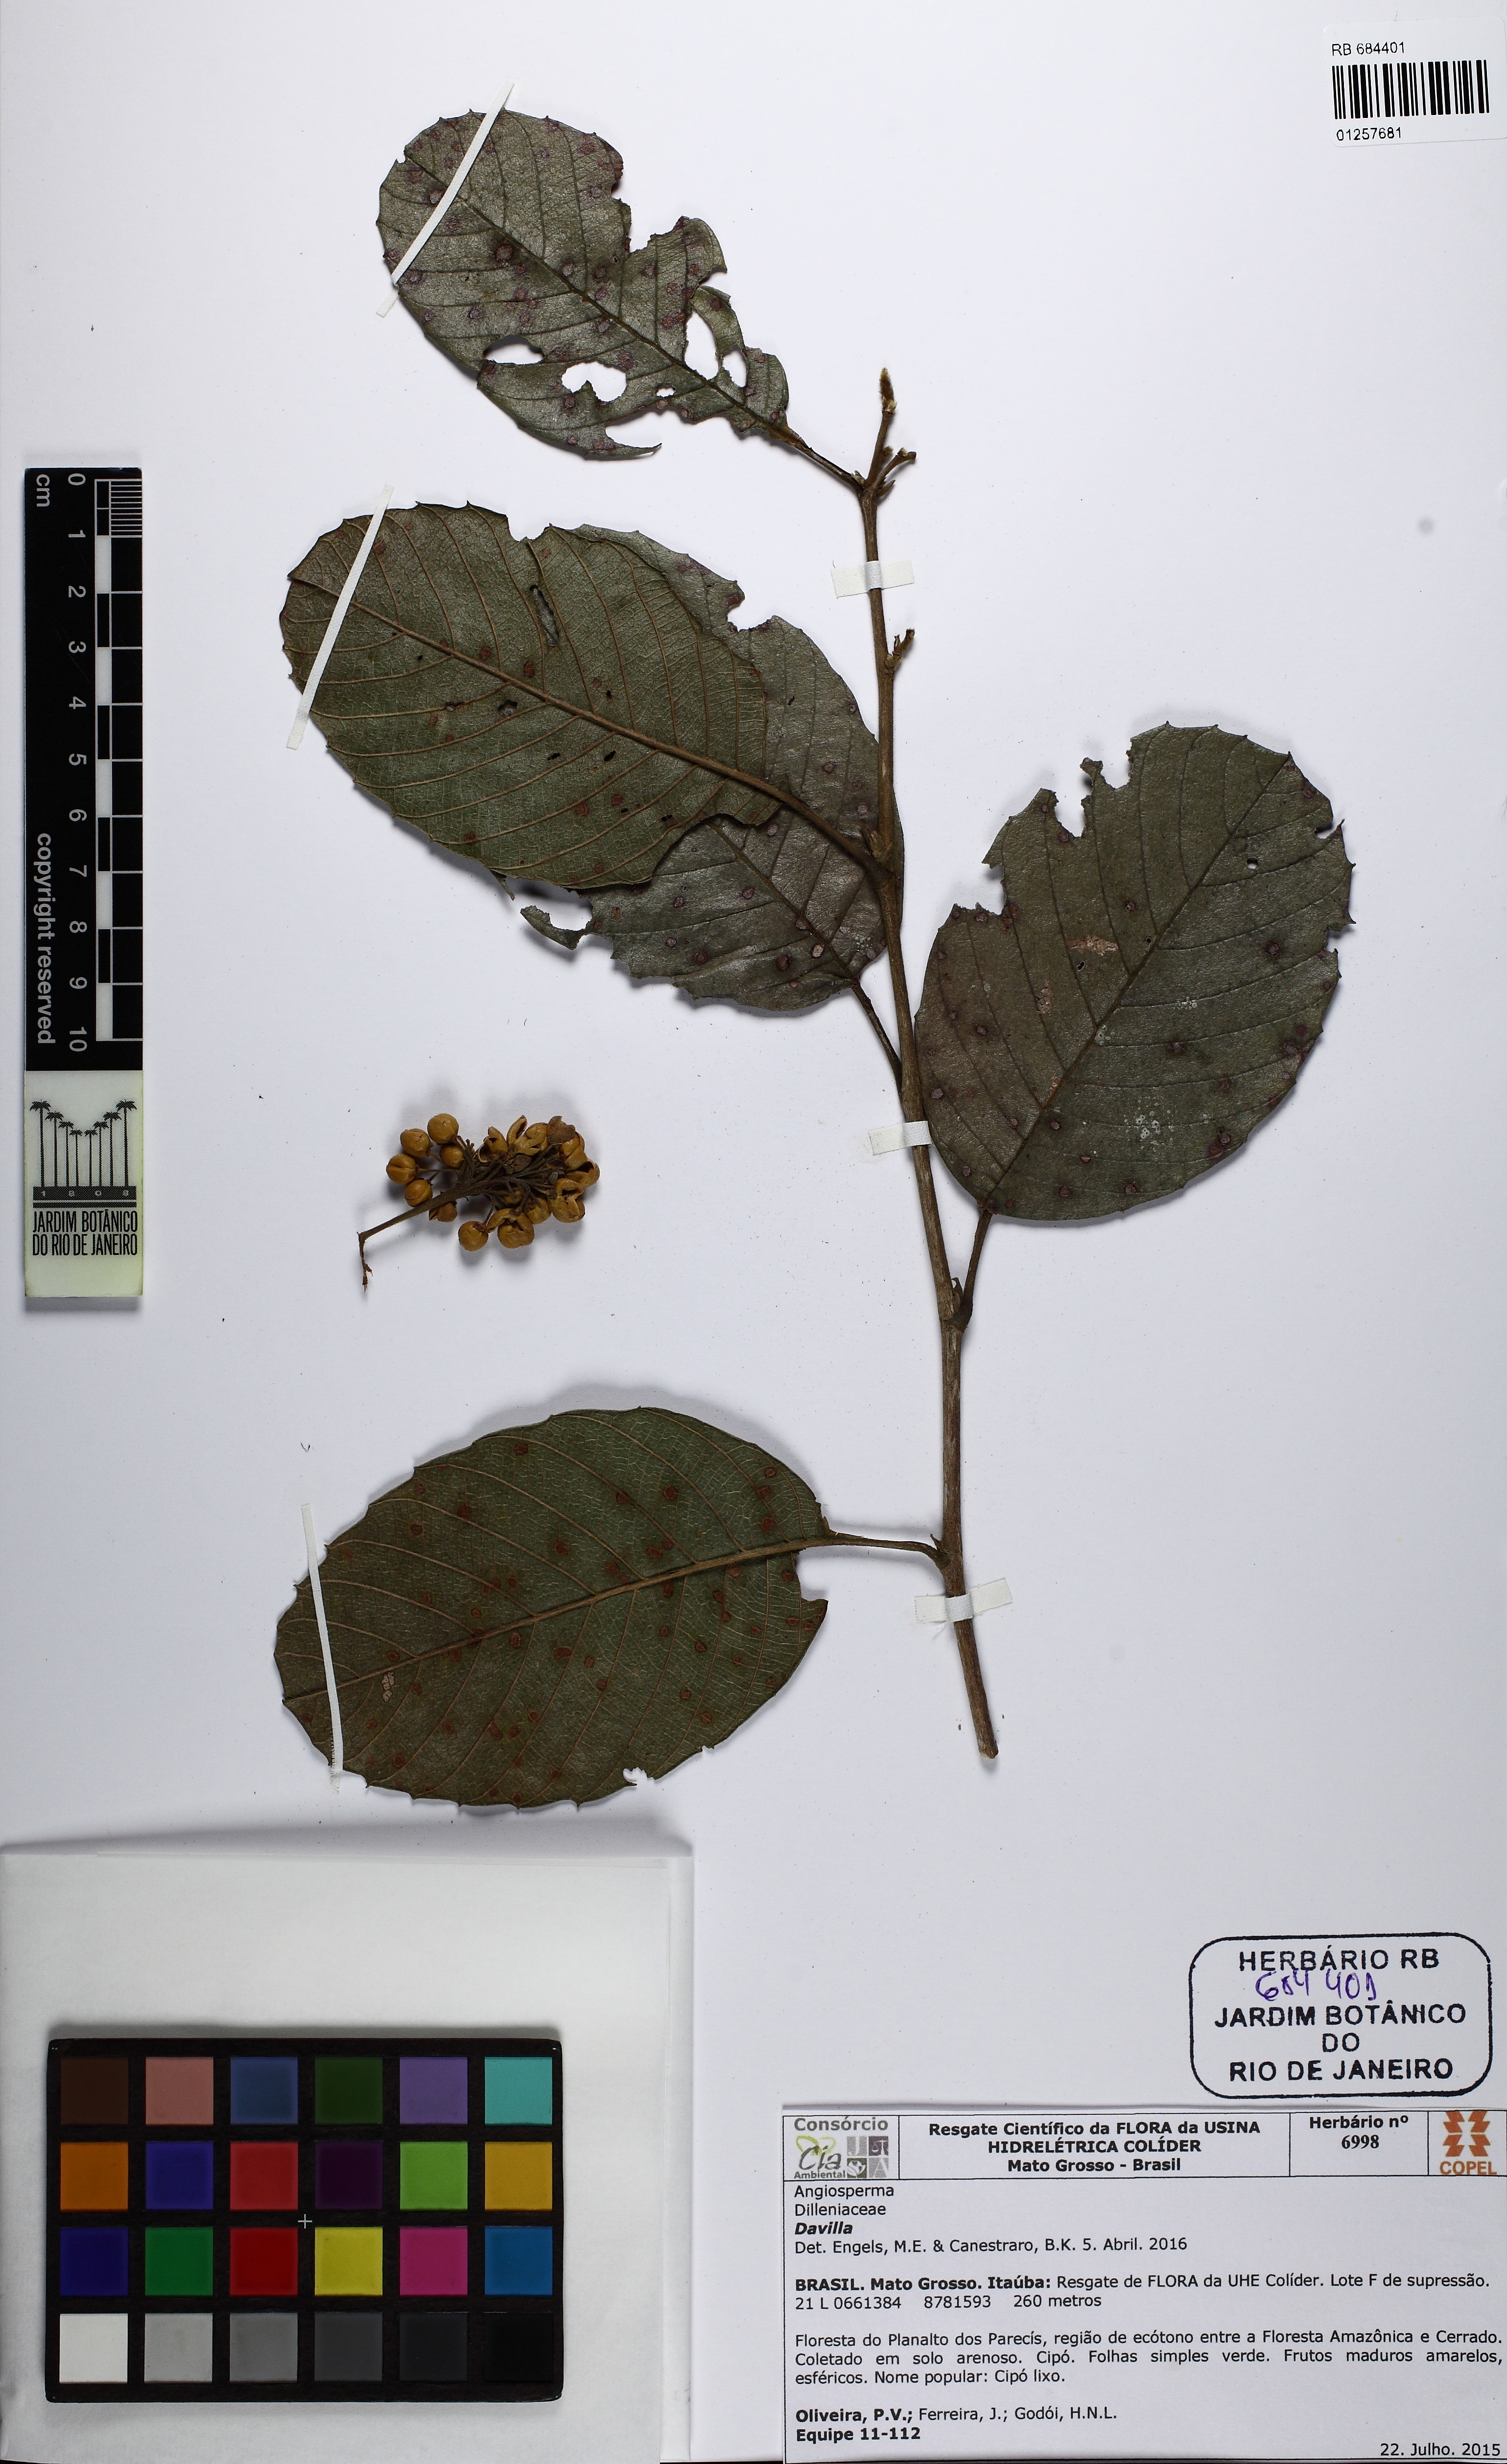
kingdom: Plantae
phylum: Tracheophyta
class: Magnoliopsida
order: Dilleniales
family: Dilleniaceae
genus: Davilla
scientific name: Davilla nitida
